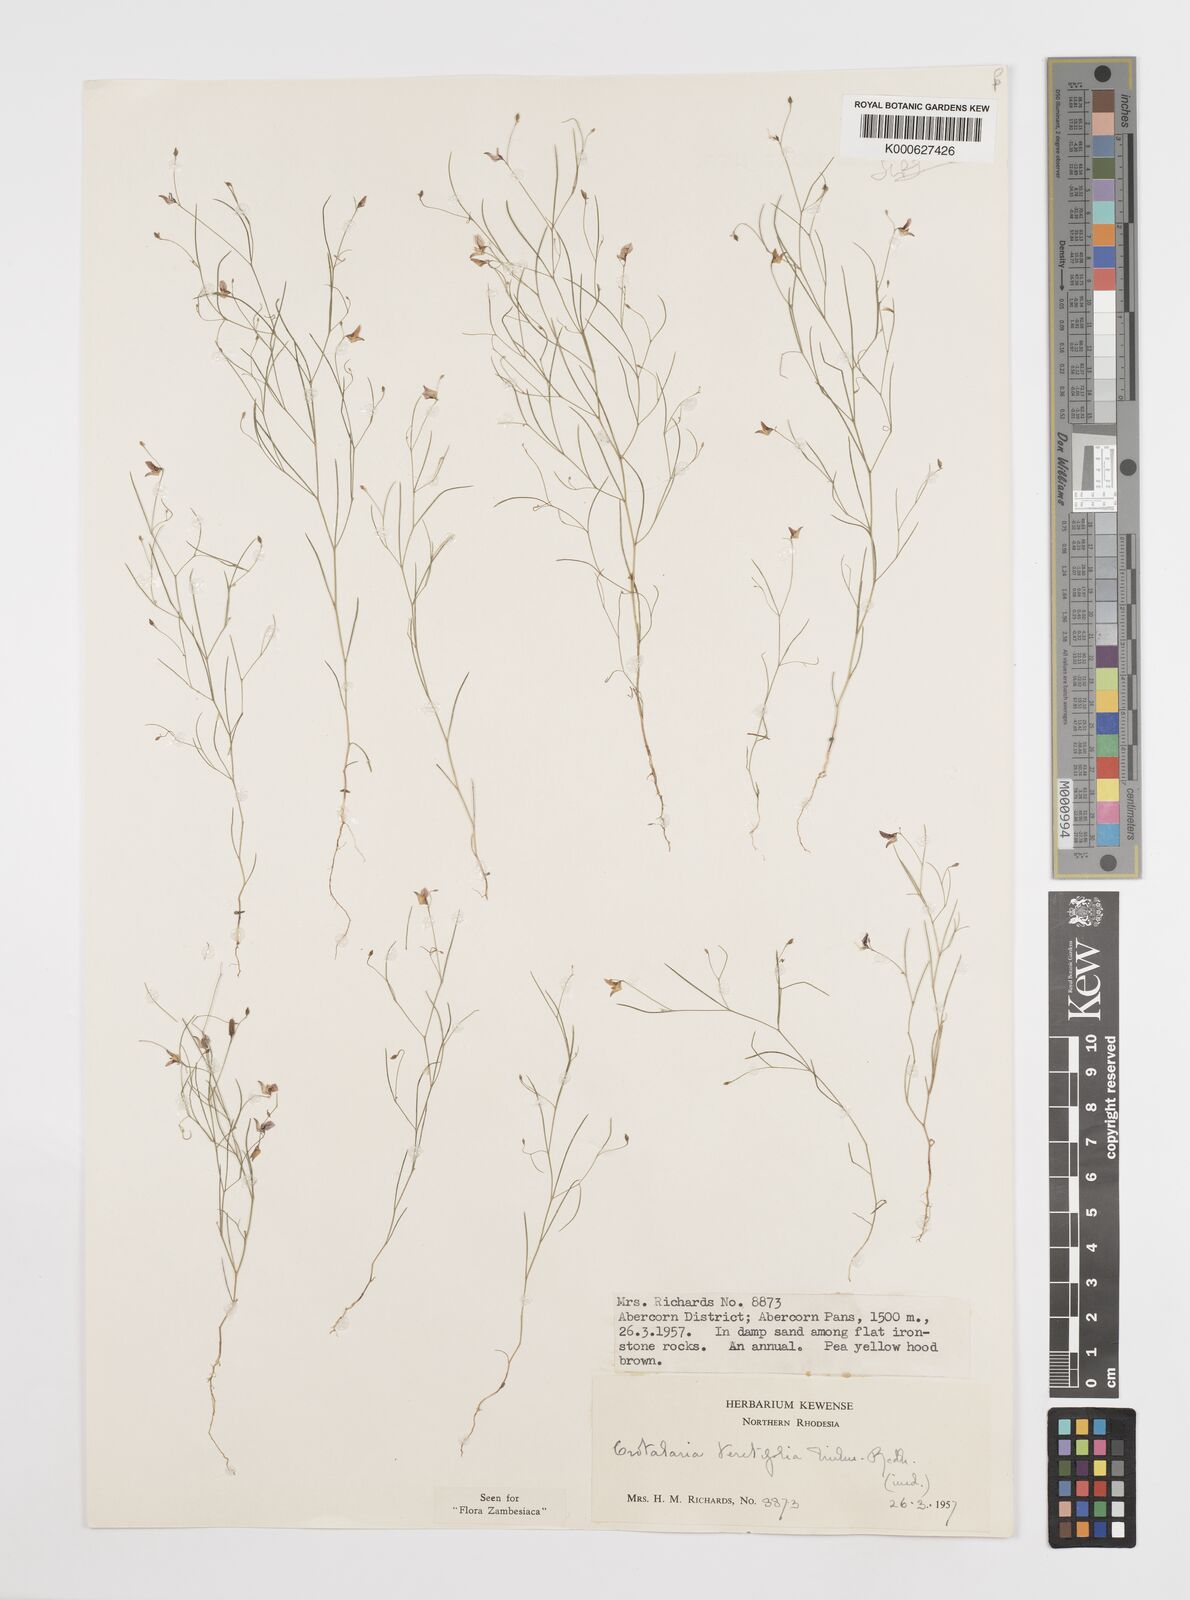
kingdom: Plantae
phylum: Tracheophyta
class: Magnoliopsida
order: Fabales
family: Fabaceae
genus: Crotalaria
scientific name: Crotalaria teretifolia
